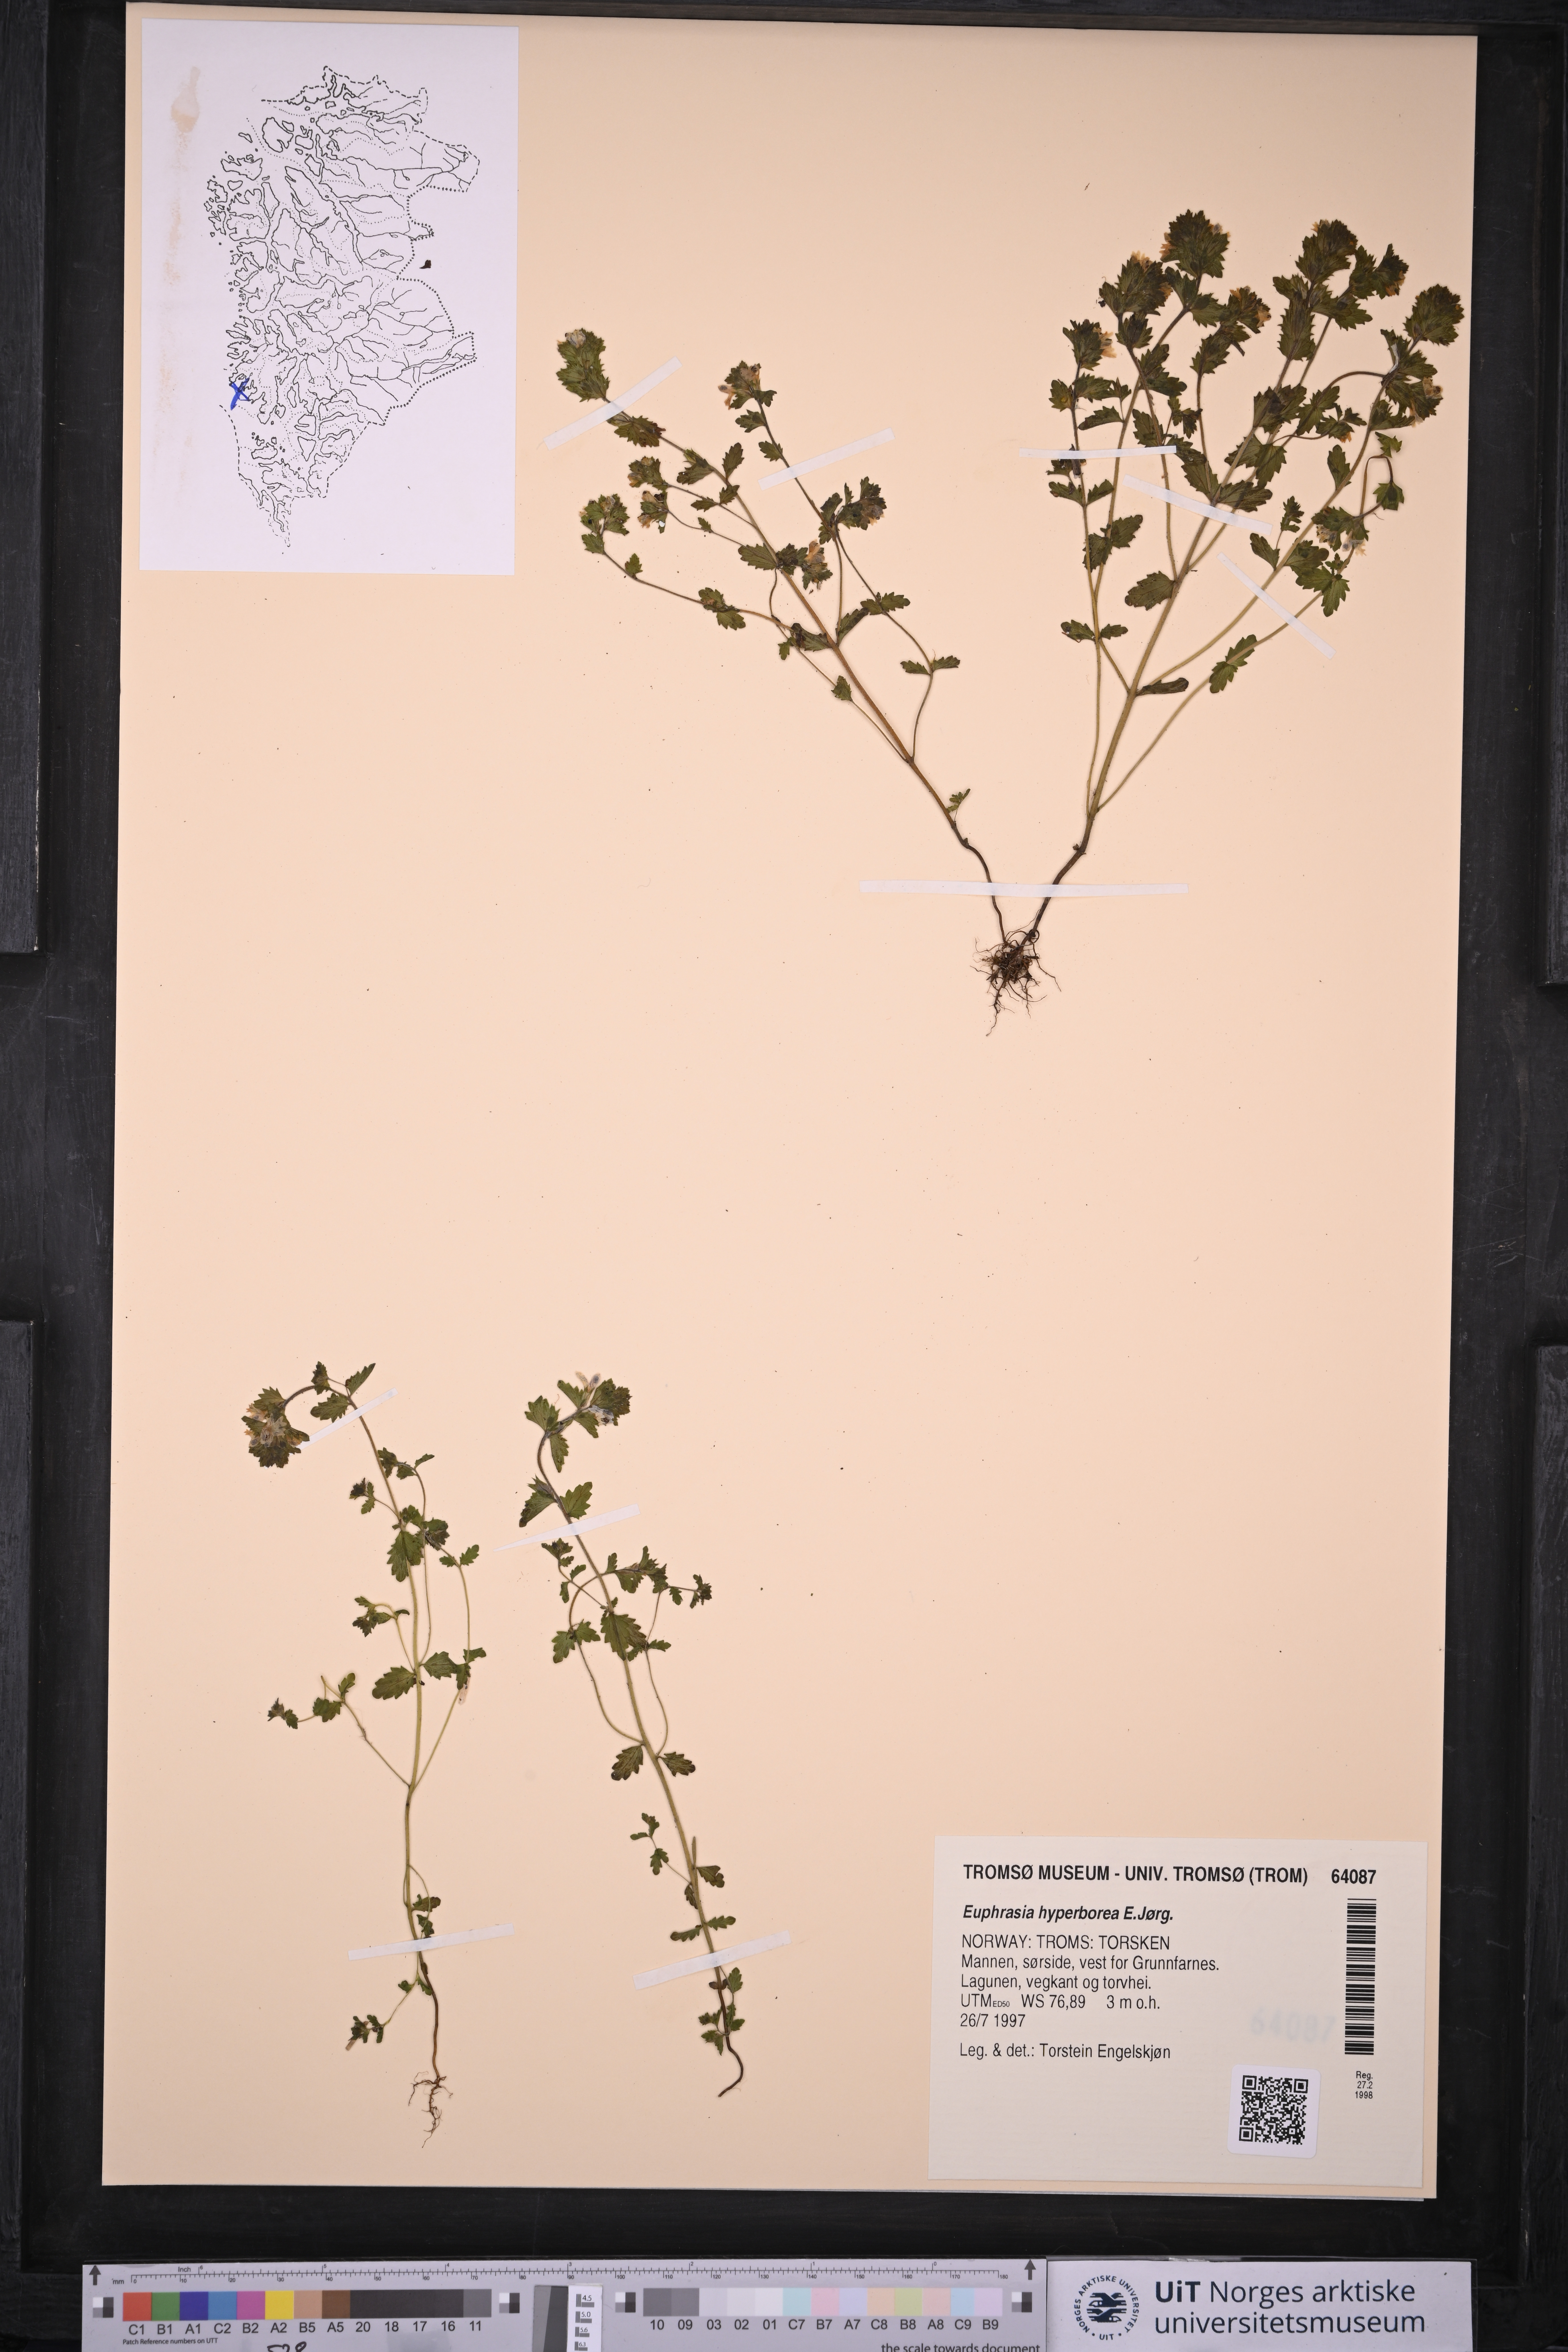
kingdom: Plantae
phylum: Tracheophyta
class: Magnoliopsida
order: Lamiales
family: Orobanchaceae
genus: Euphrasia
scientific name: Euphrasia hyperborea
